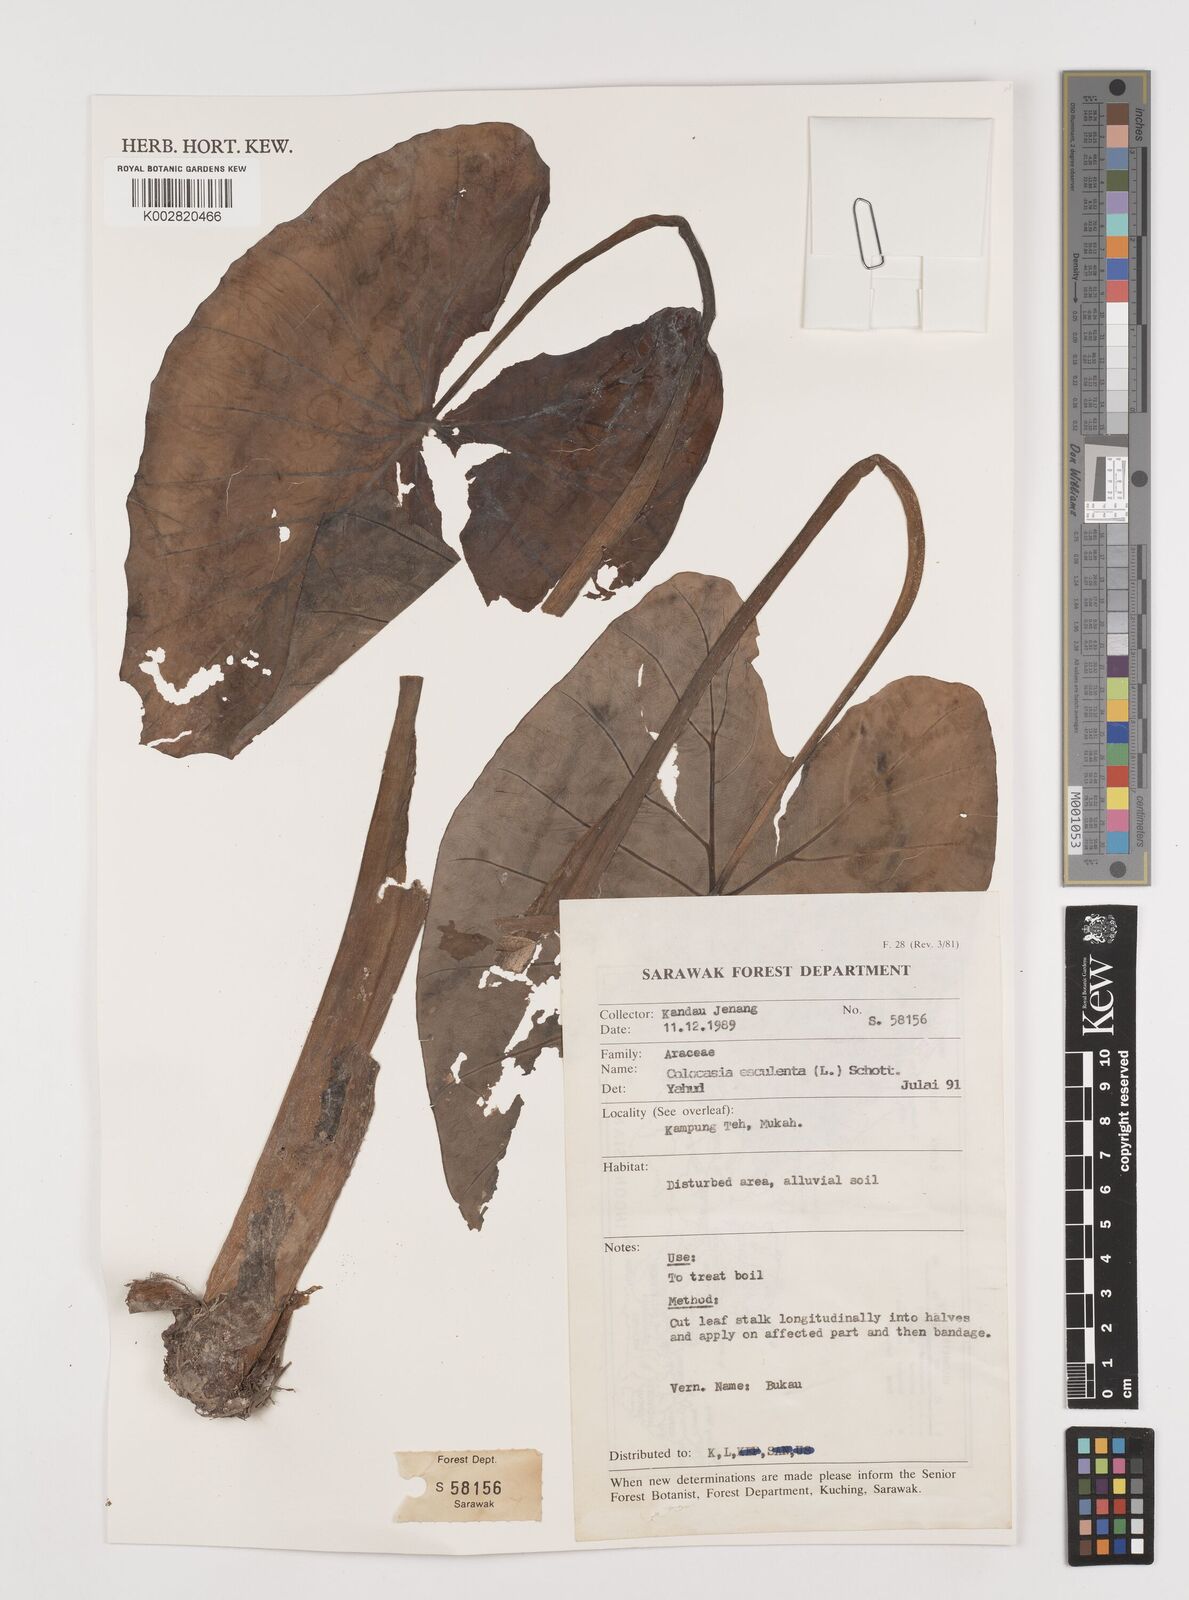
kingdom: Plantae
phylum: Tracheophyta
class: Liliopsida
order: Alismatales
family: Araceae
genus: Colocasia
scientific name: Colocasia esculenta
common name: Taro
